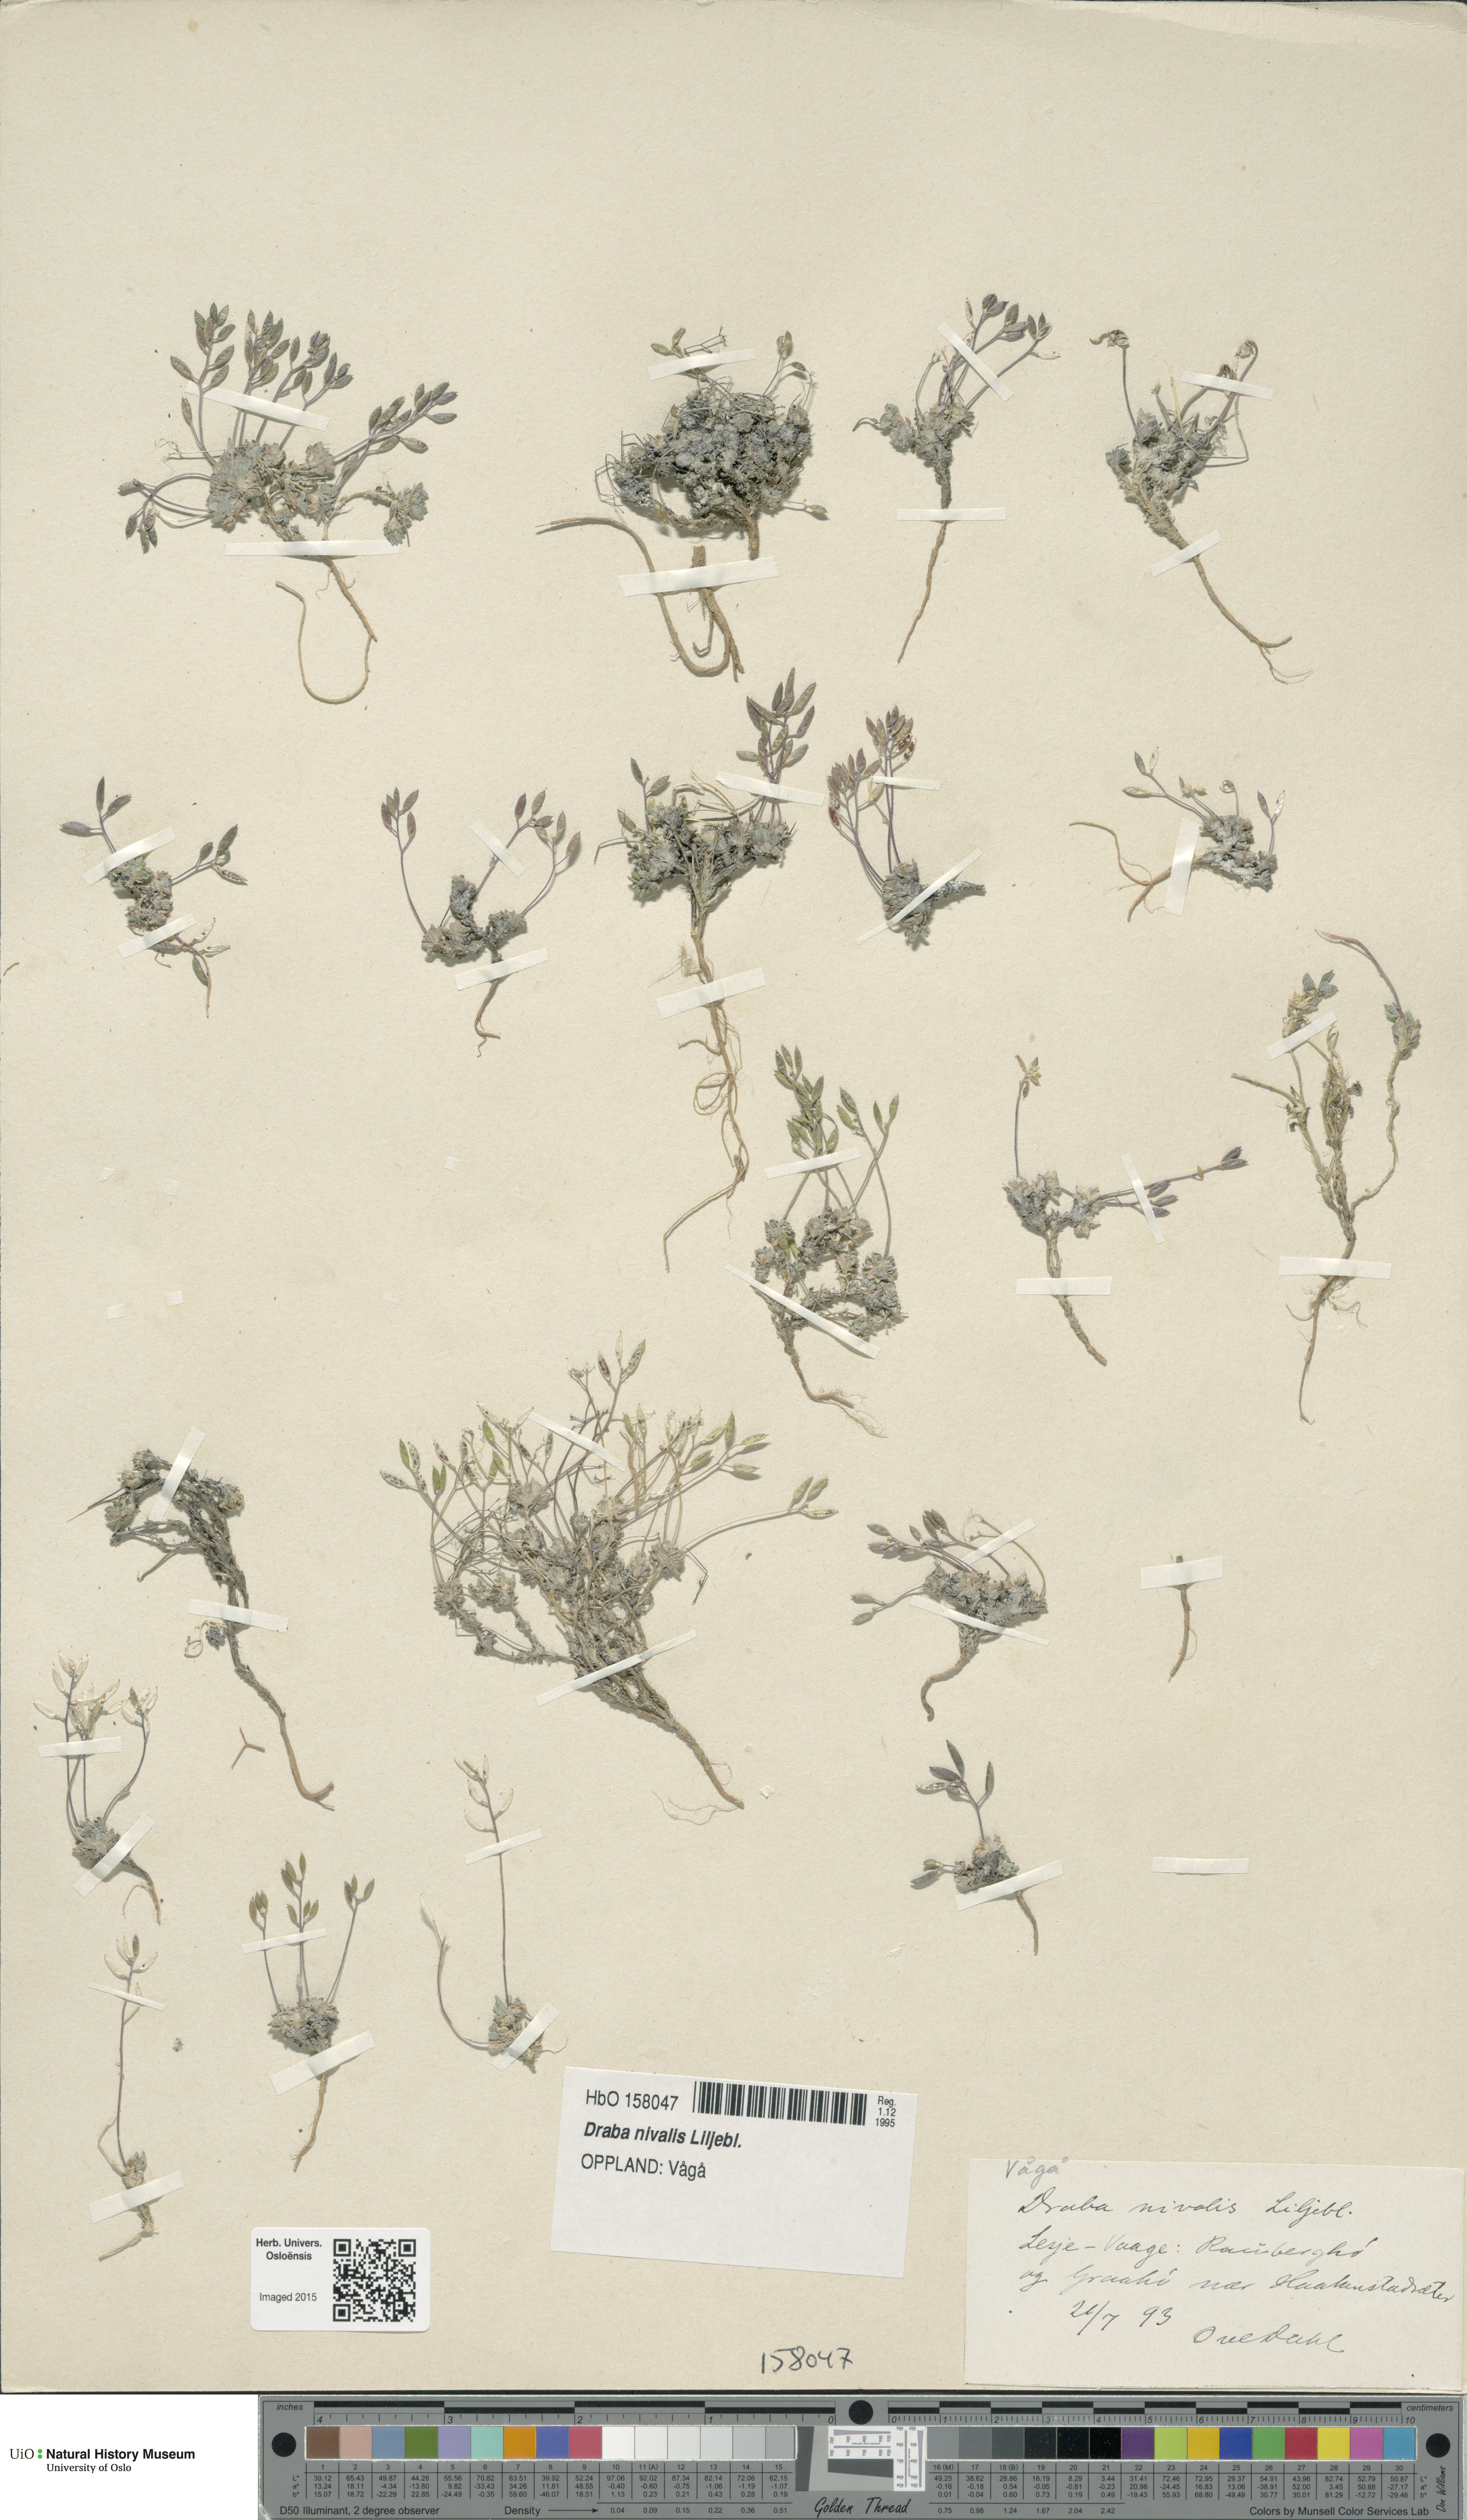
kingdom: Plantae
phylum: Tracheophyta
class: Magnoliopsida
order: Brassicales
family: Brassicaceae
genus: Draba
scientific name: Draba nivalis
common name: Snow draba
